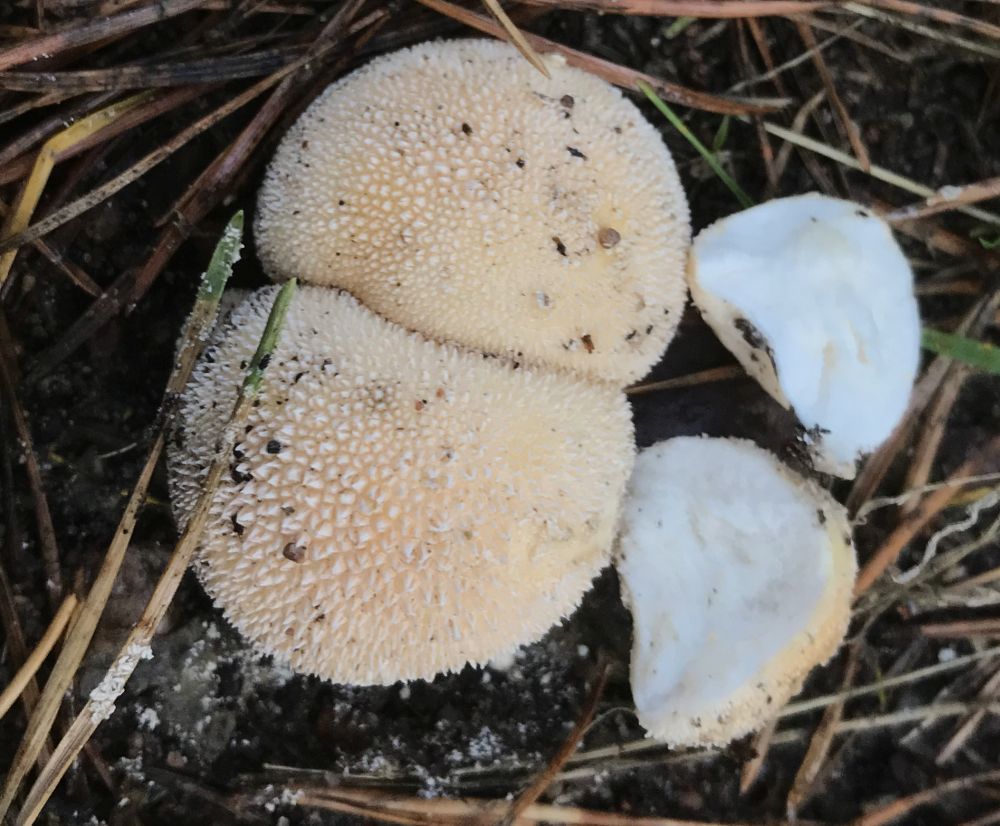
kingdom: Fungi
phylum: Basidiomycota
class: Agaricomycetes
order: Agaricales
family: Agaricaceae
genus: Lycoperdon
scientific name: Lycoperdon
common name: støvbold
